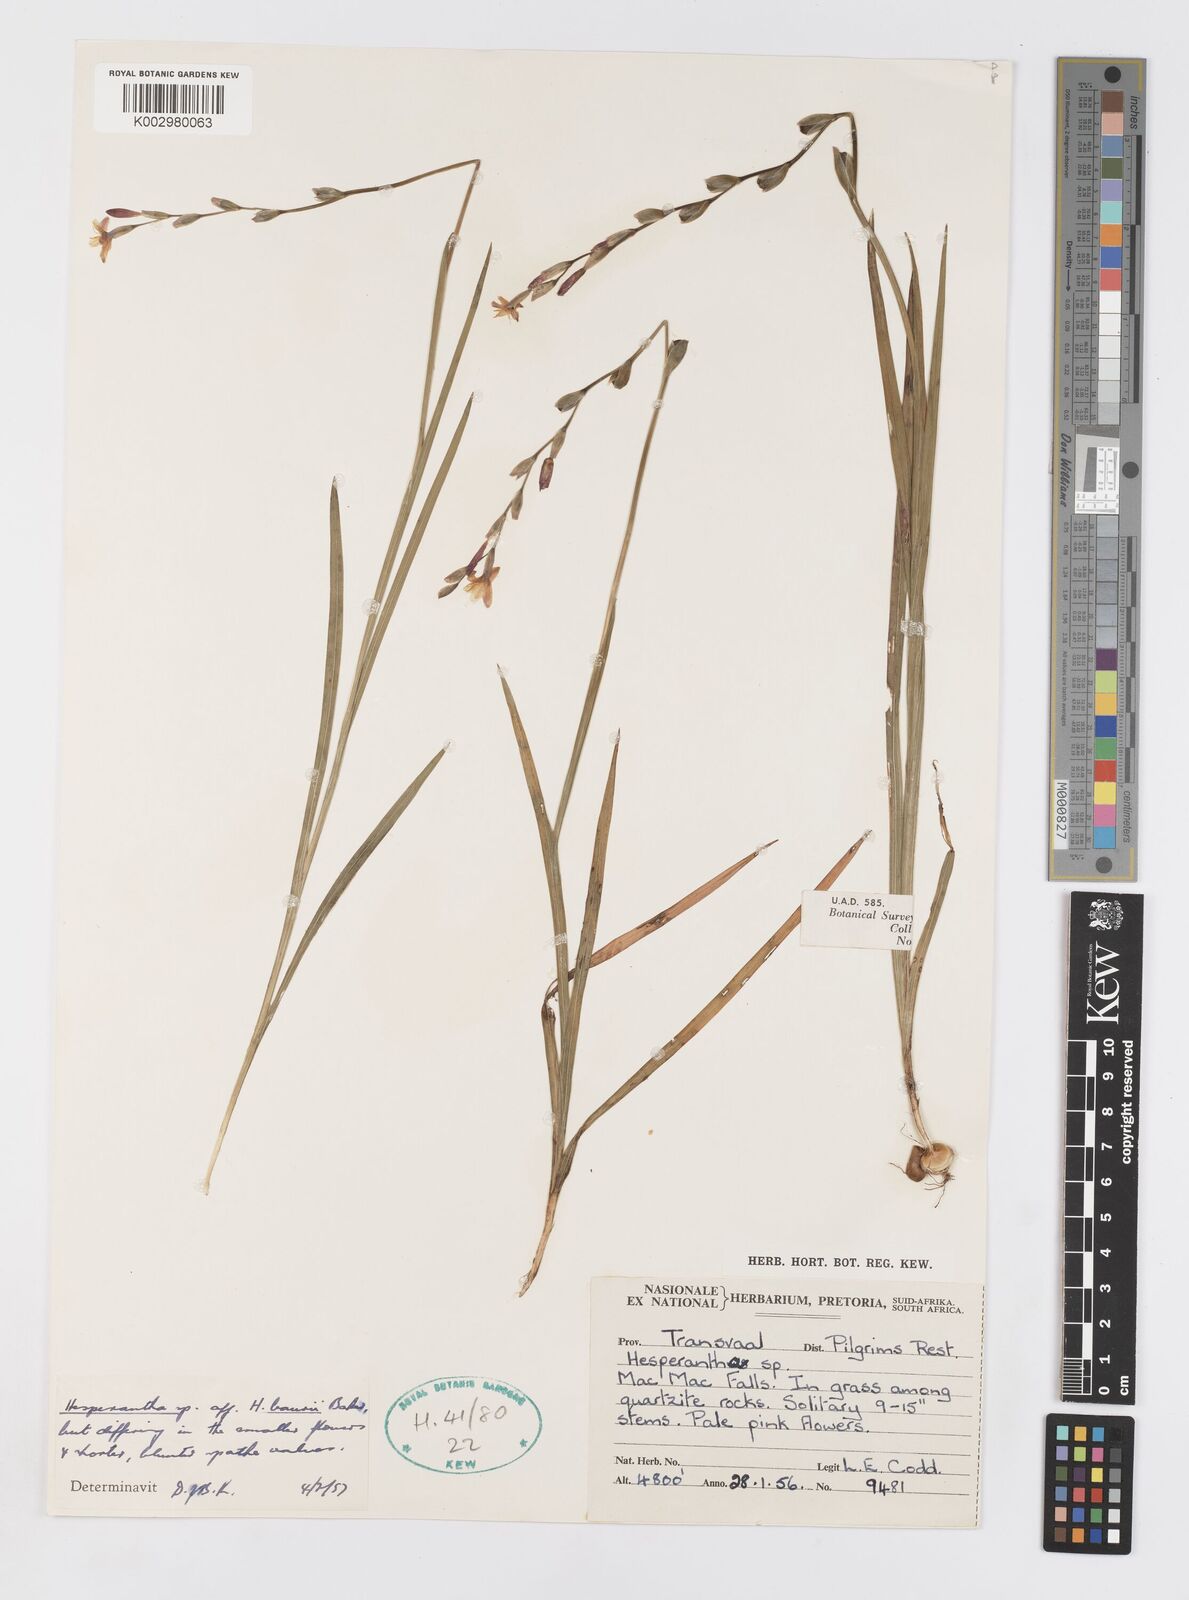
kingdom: Plantae
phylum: Tracheophyta
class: Liliopsida
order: Asparagales
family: Iridaceae
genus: Hesperantha
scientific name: Hesperantha baurii
